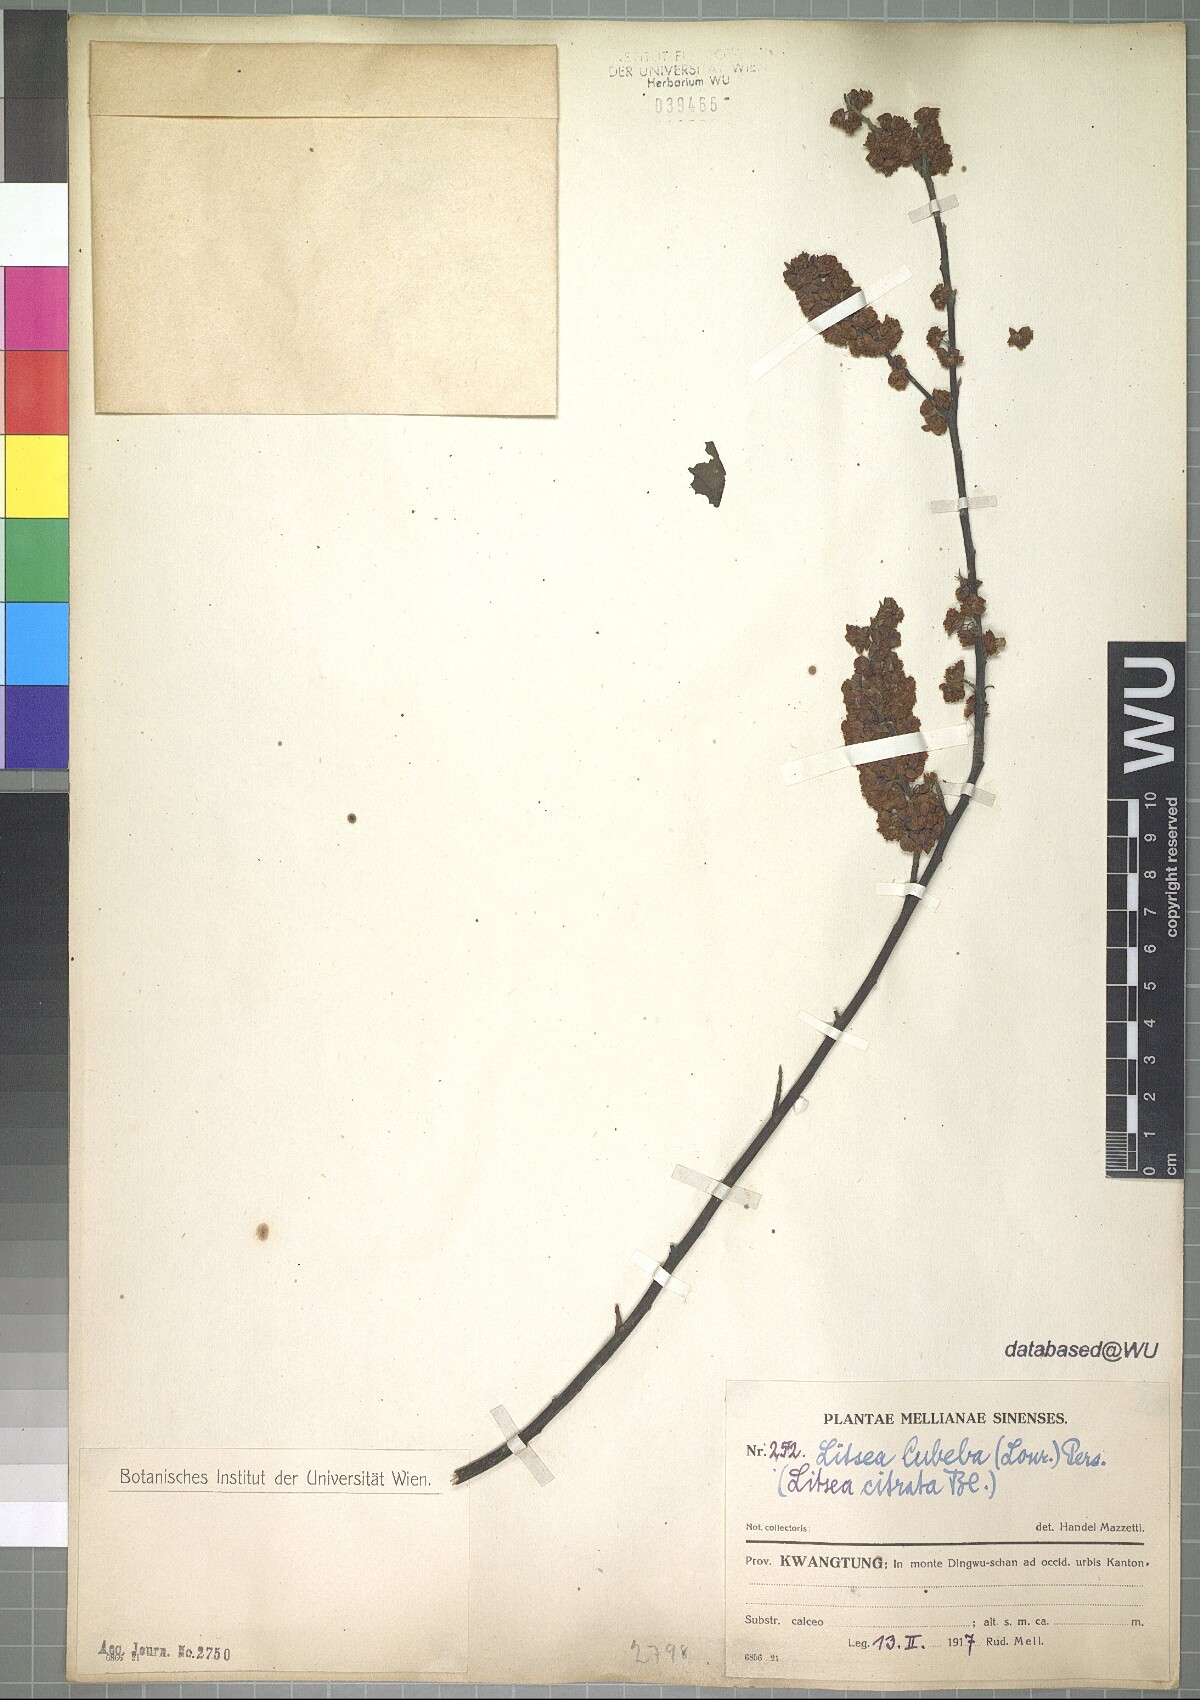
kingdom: Plantae
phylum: Tracheophyta
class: Magnoliopsida
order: Laurales
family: Lauraceae
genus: Litsea
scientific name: Litsea cubeba
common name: Mountain-pepper
